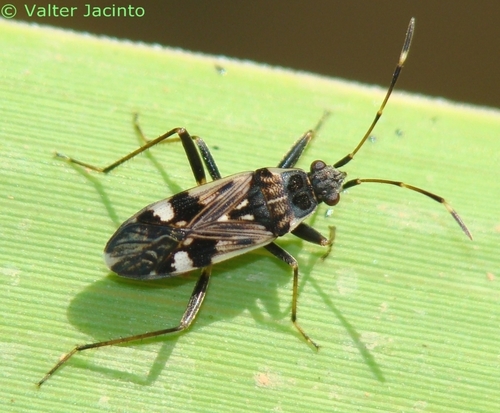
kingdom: Animalia
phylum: Arthropoda
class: Insecta
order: Hemiptera
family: Rhyparochromidae
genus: Beosus
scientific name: Beosus maritimus
